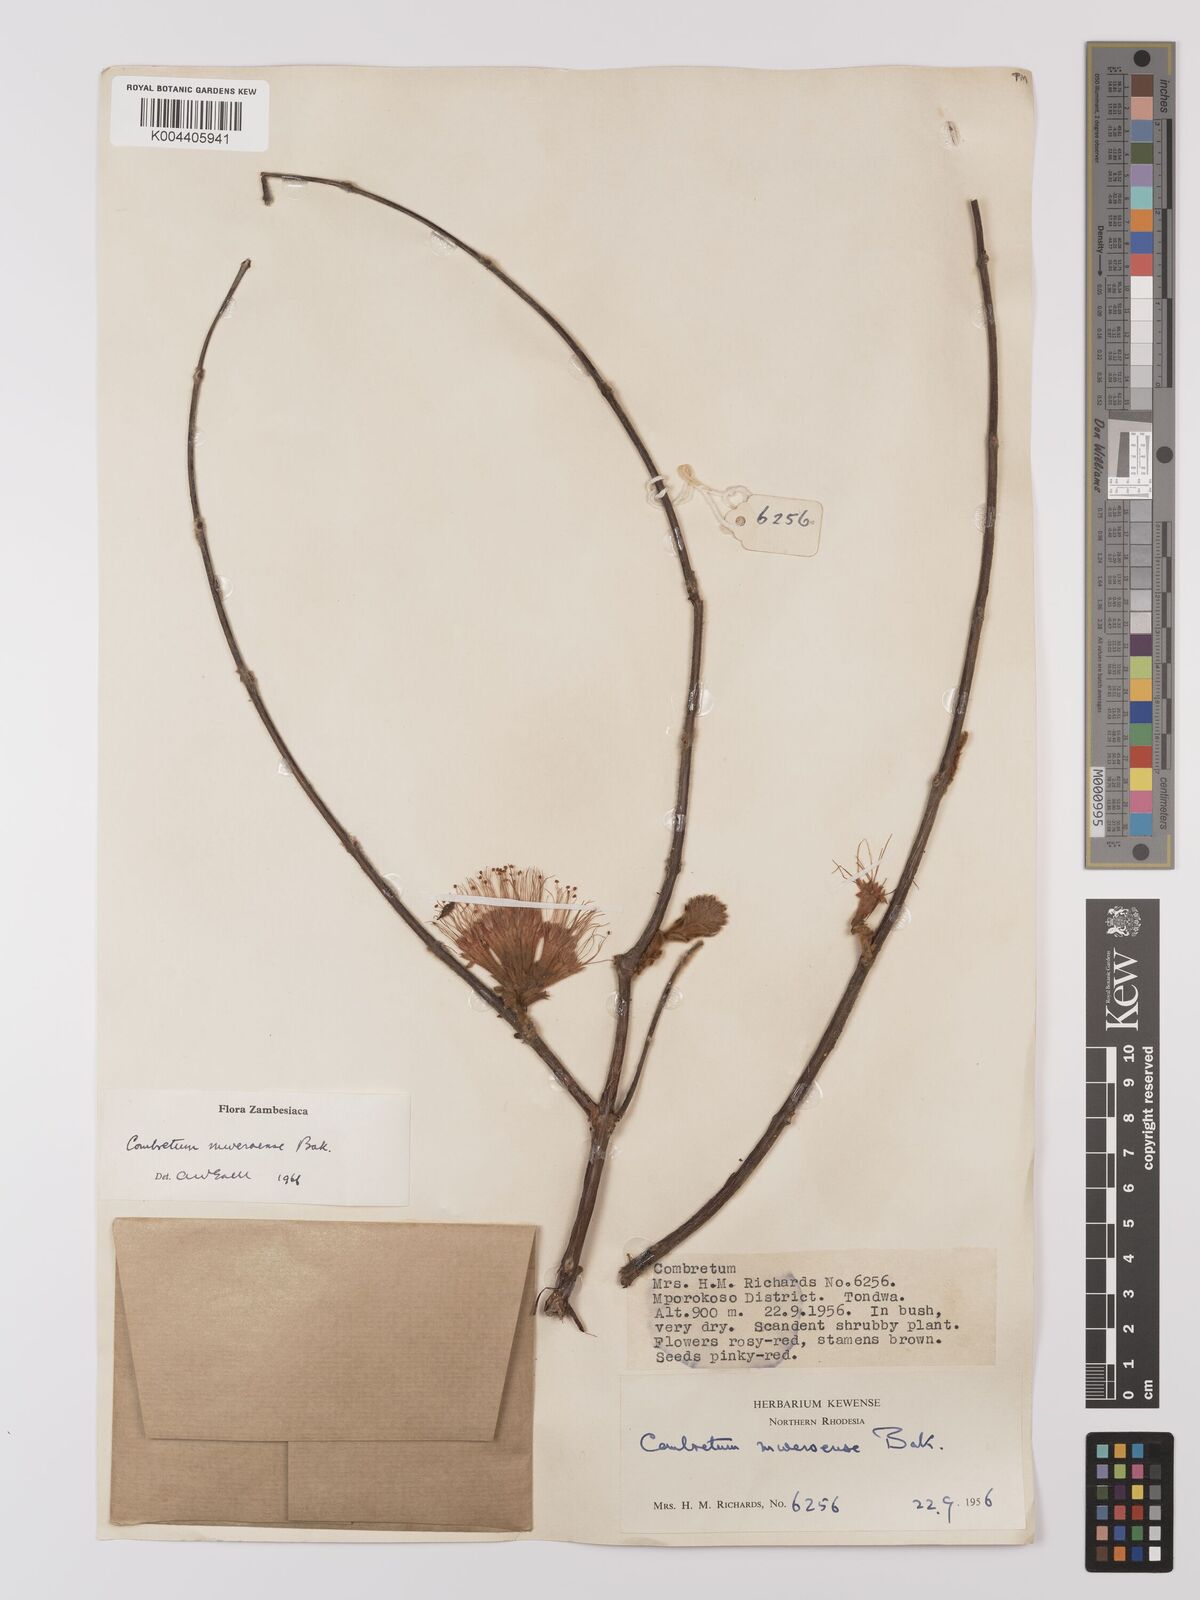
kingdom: Plantae
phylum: Tracheophyta
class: Magnoliopsida
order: Myrtales
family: Combretaceae
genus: Combretum
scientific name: Combretum mweroense
